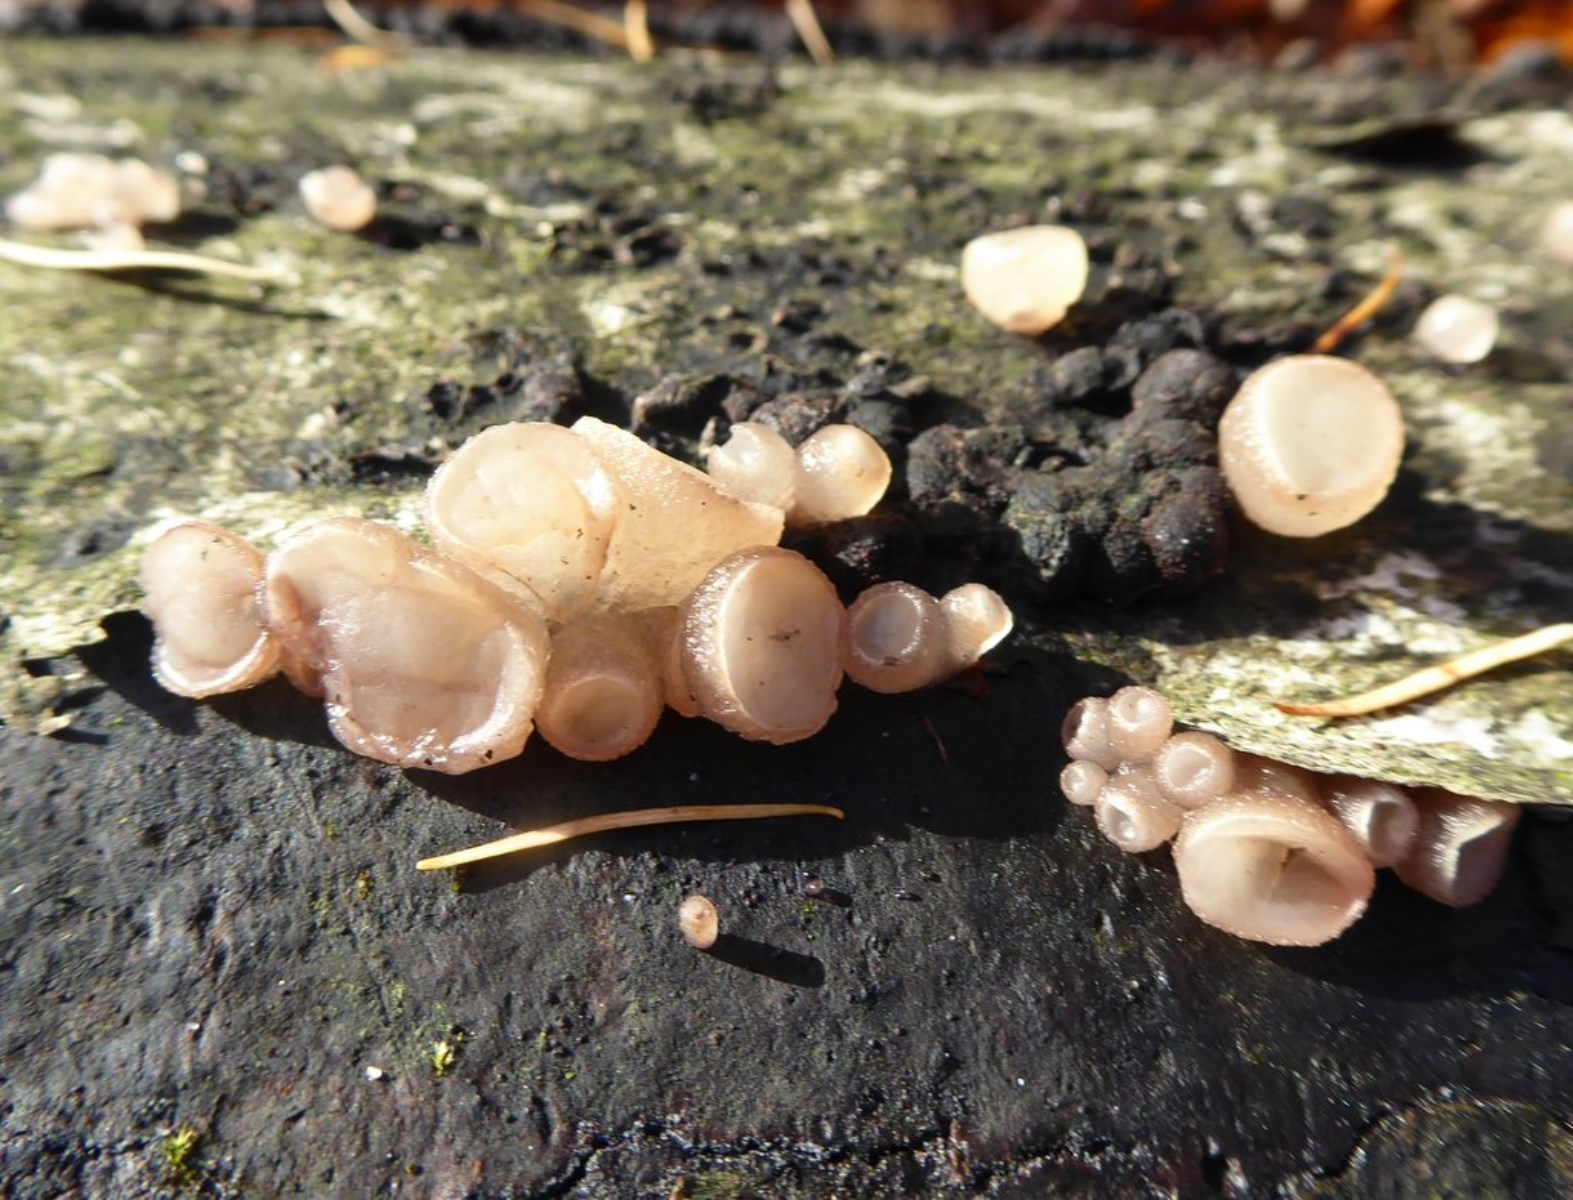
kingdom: Fungi
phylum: Ascomycota
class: Leotiomycetes
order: Helotiales
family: Gelatinodiscaceae
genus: Neobulgaria
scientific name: Neobulgaria pura
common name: bleg bævreskive
